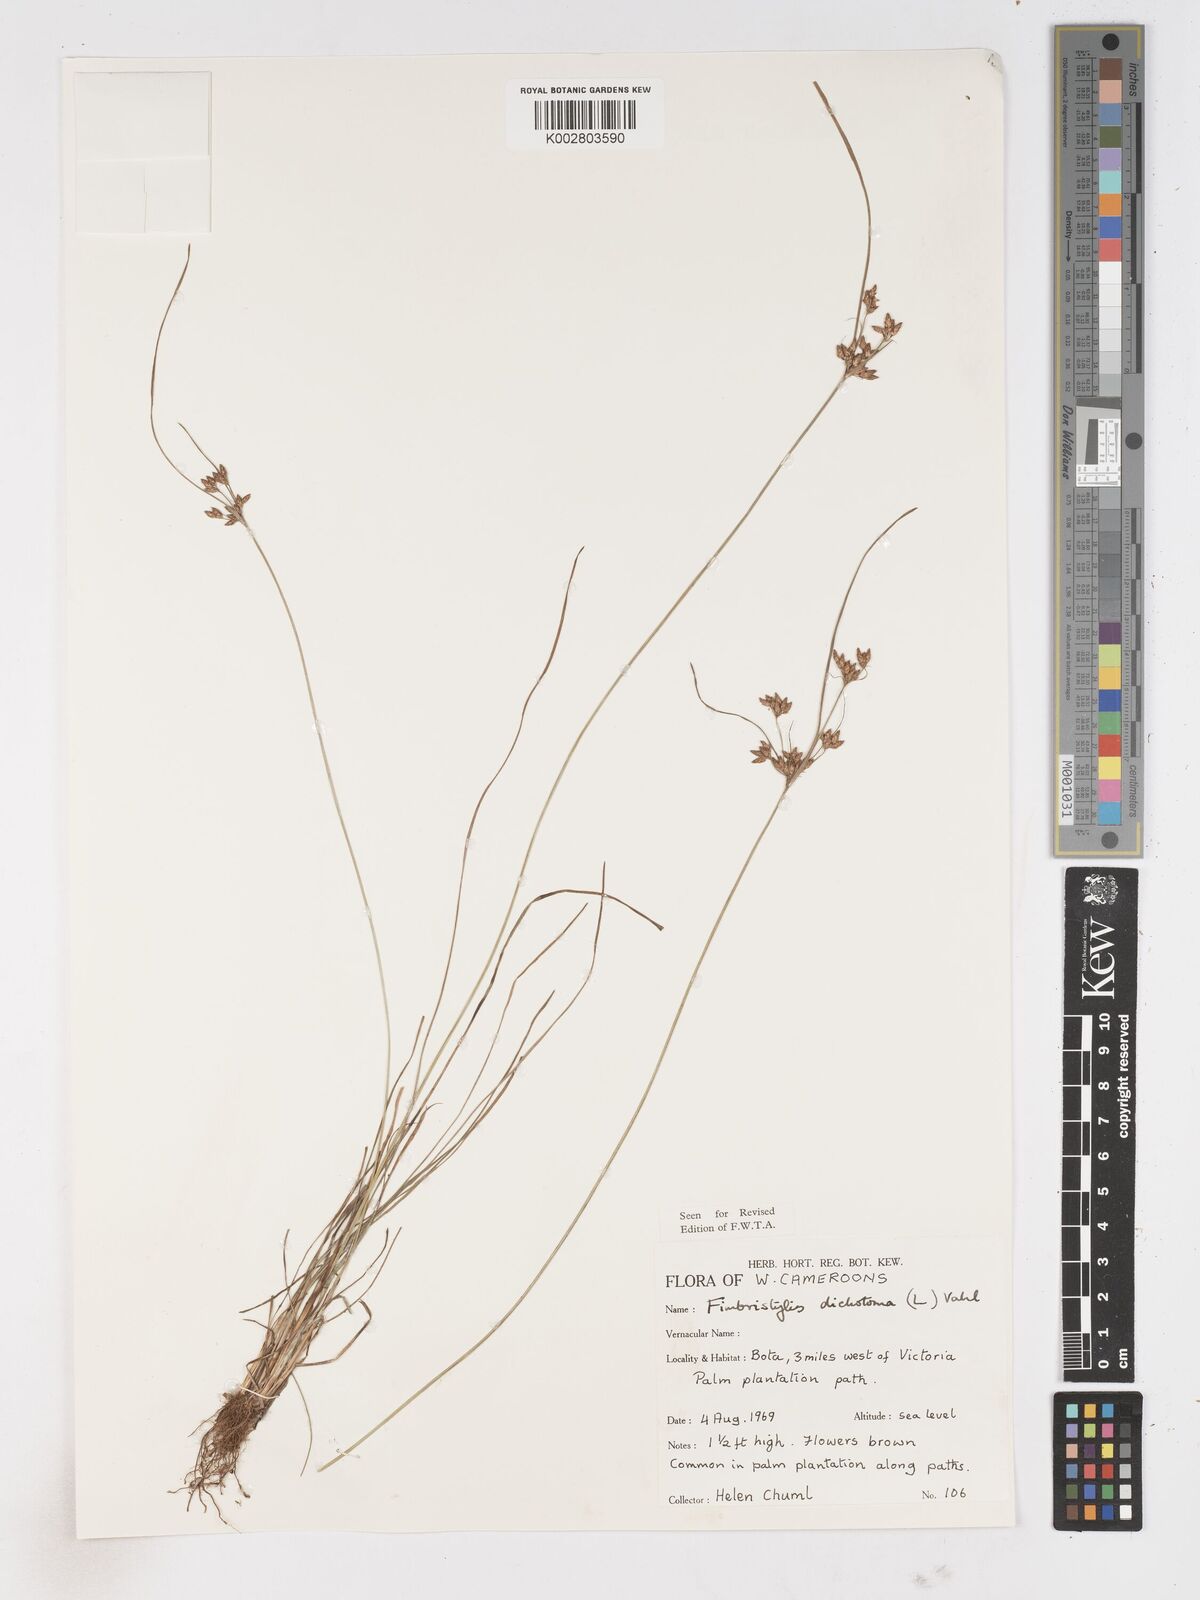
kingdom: Plantae
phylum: Tracheophyta
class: Liliopsida
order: Poales
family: Cyperaceae
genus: Fimbristylis
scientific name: Fimbristylis dichotoma
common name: Forked fimbry
